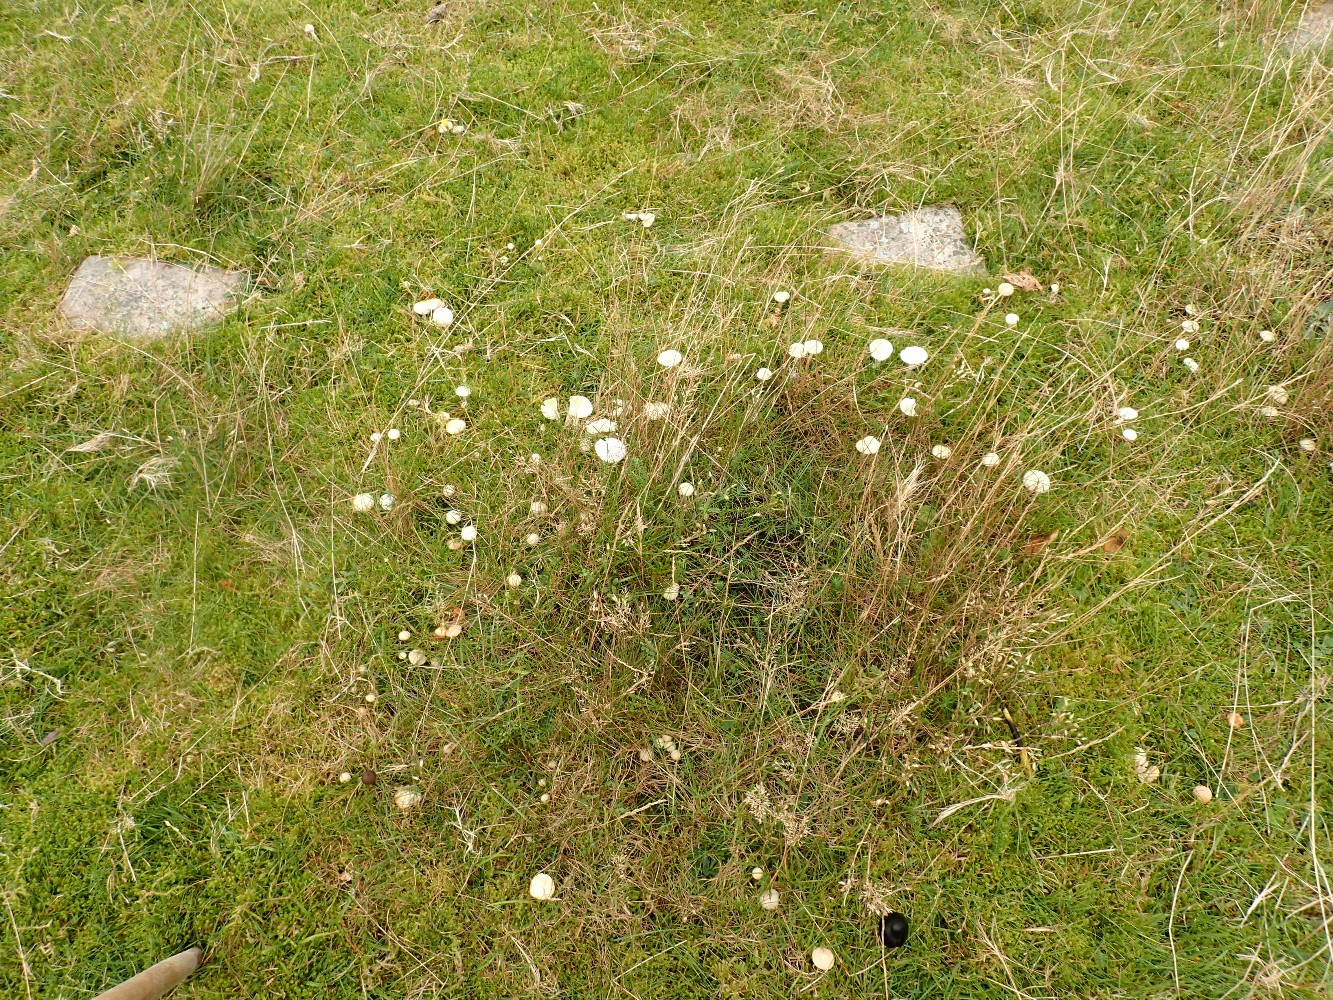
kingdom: Fungi
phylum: Basidiomycota
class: Agaricomycetes
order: Agaricales
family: Hygrophoraceae
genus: Cuphophyllus
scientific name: Cuphophyllus virgineus
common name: snehvid vokshat
